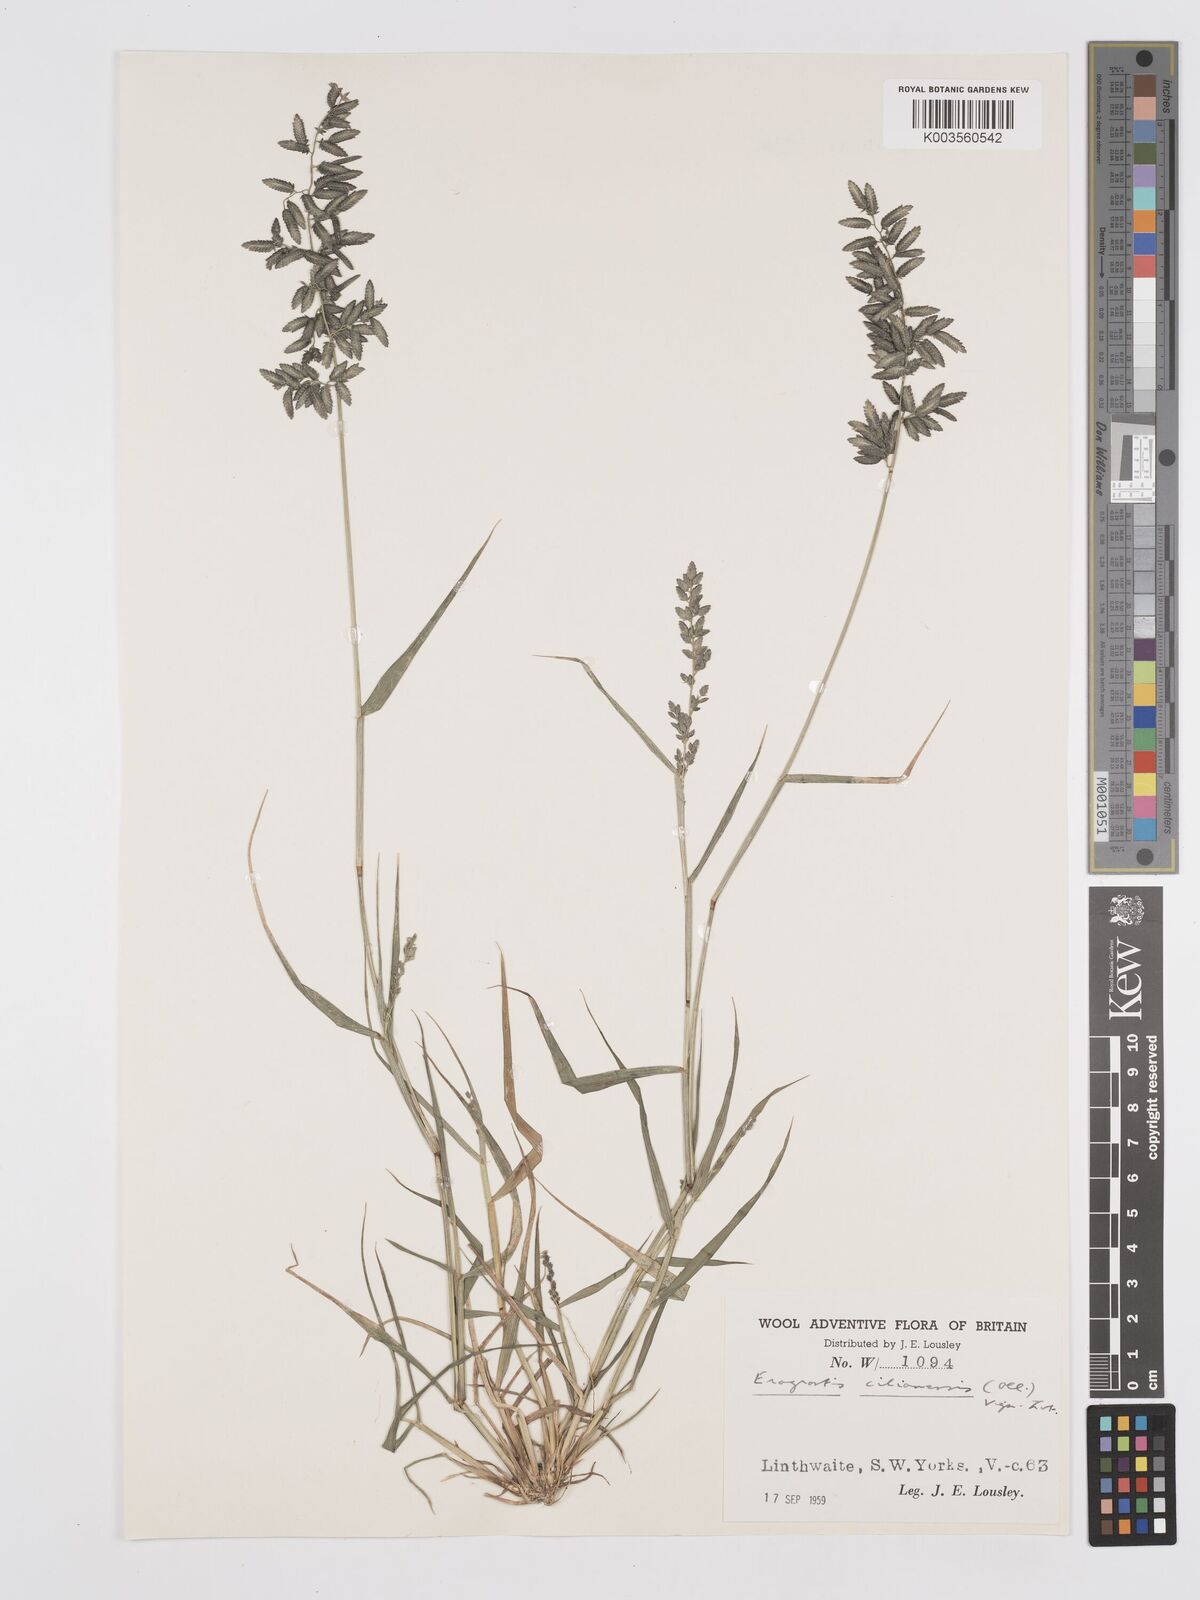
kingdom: Plantae
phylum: Tracheophyta
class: Liliopsida
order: Poales
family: Poaceae
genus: Eragrostis
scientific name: Eragrostis cilianensis
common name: Stinkgrass
